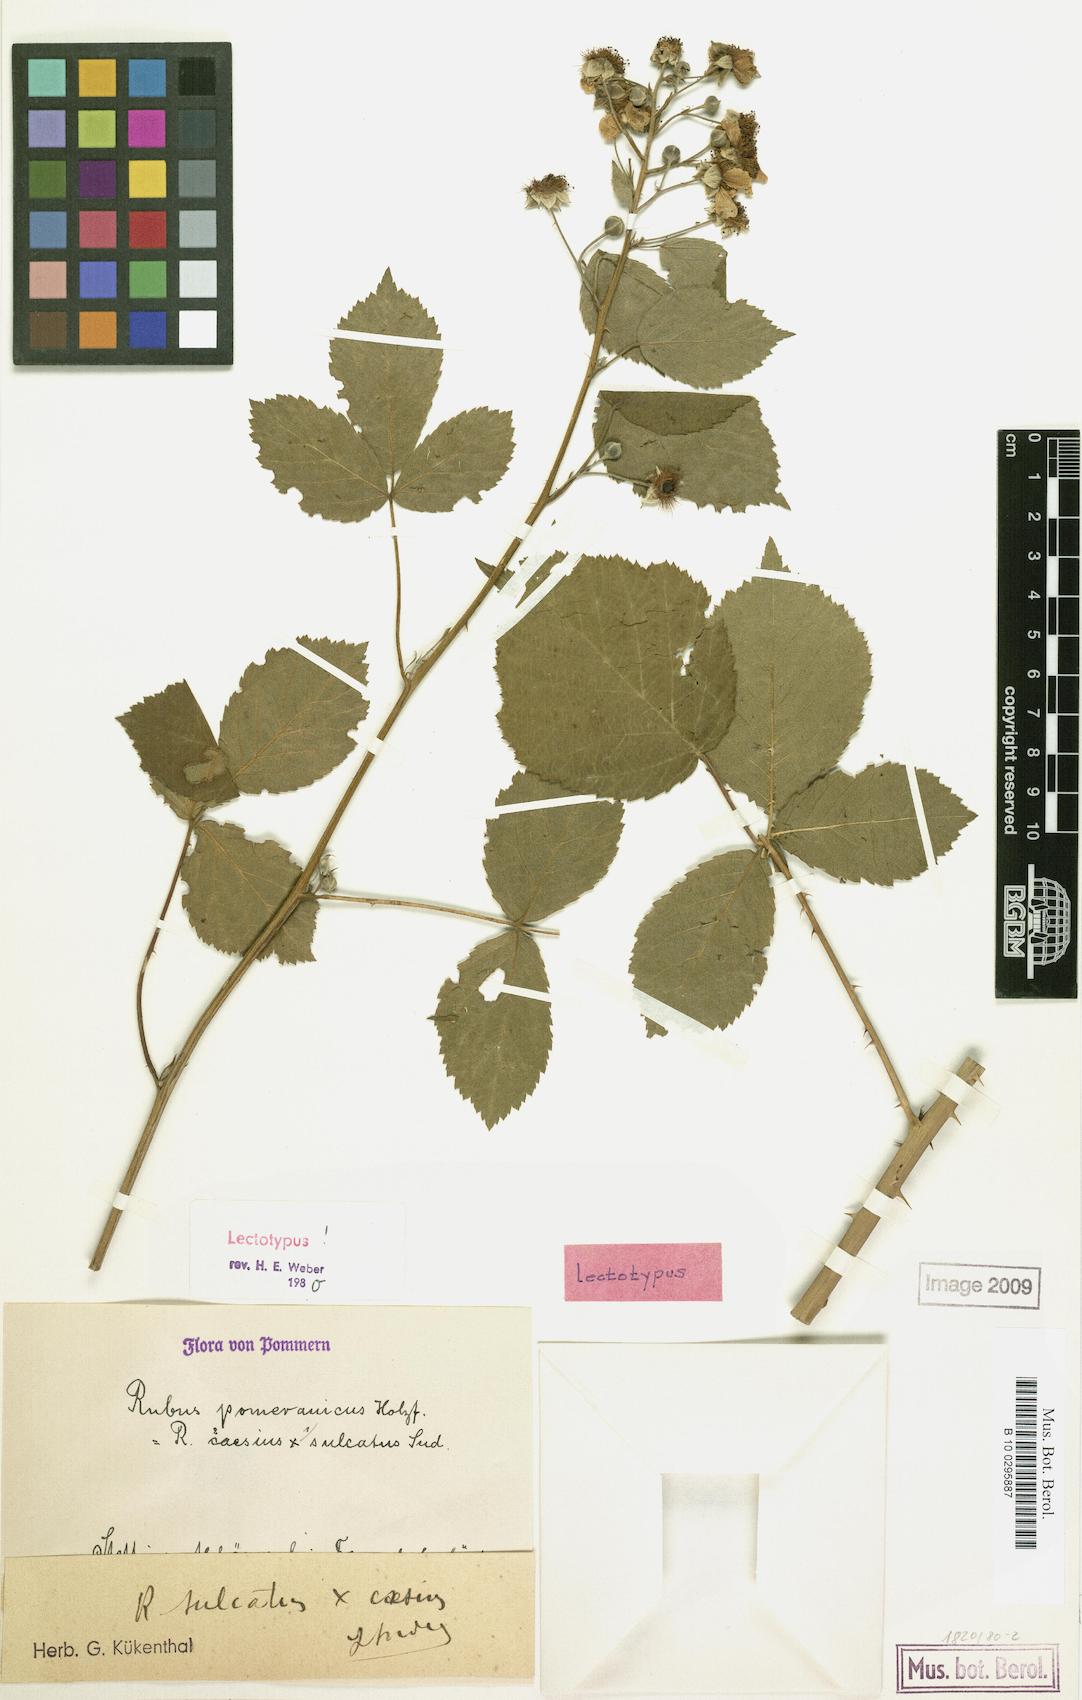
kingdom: Plantae
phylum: Tracheophyta
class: Magnoliopsida
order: Rosales
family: Rosaceae
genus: Rubus
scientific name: Rubus orthostachys
